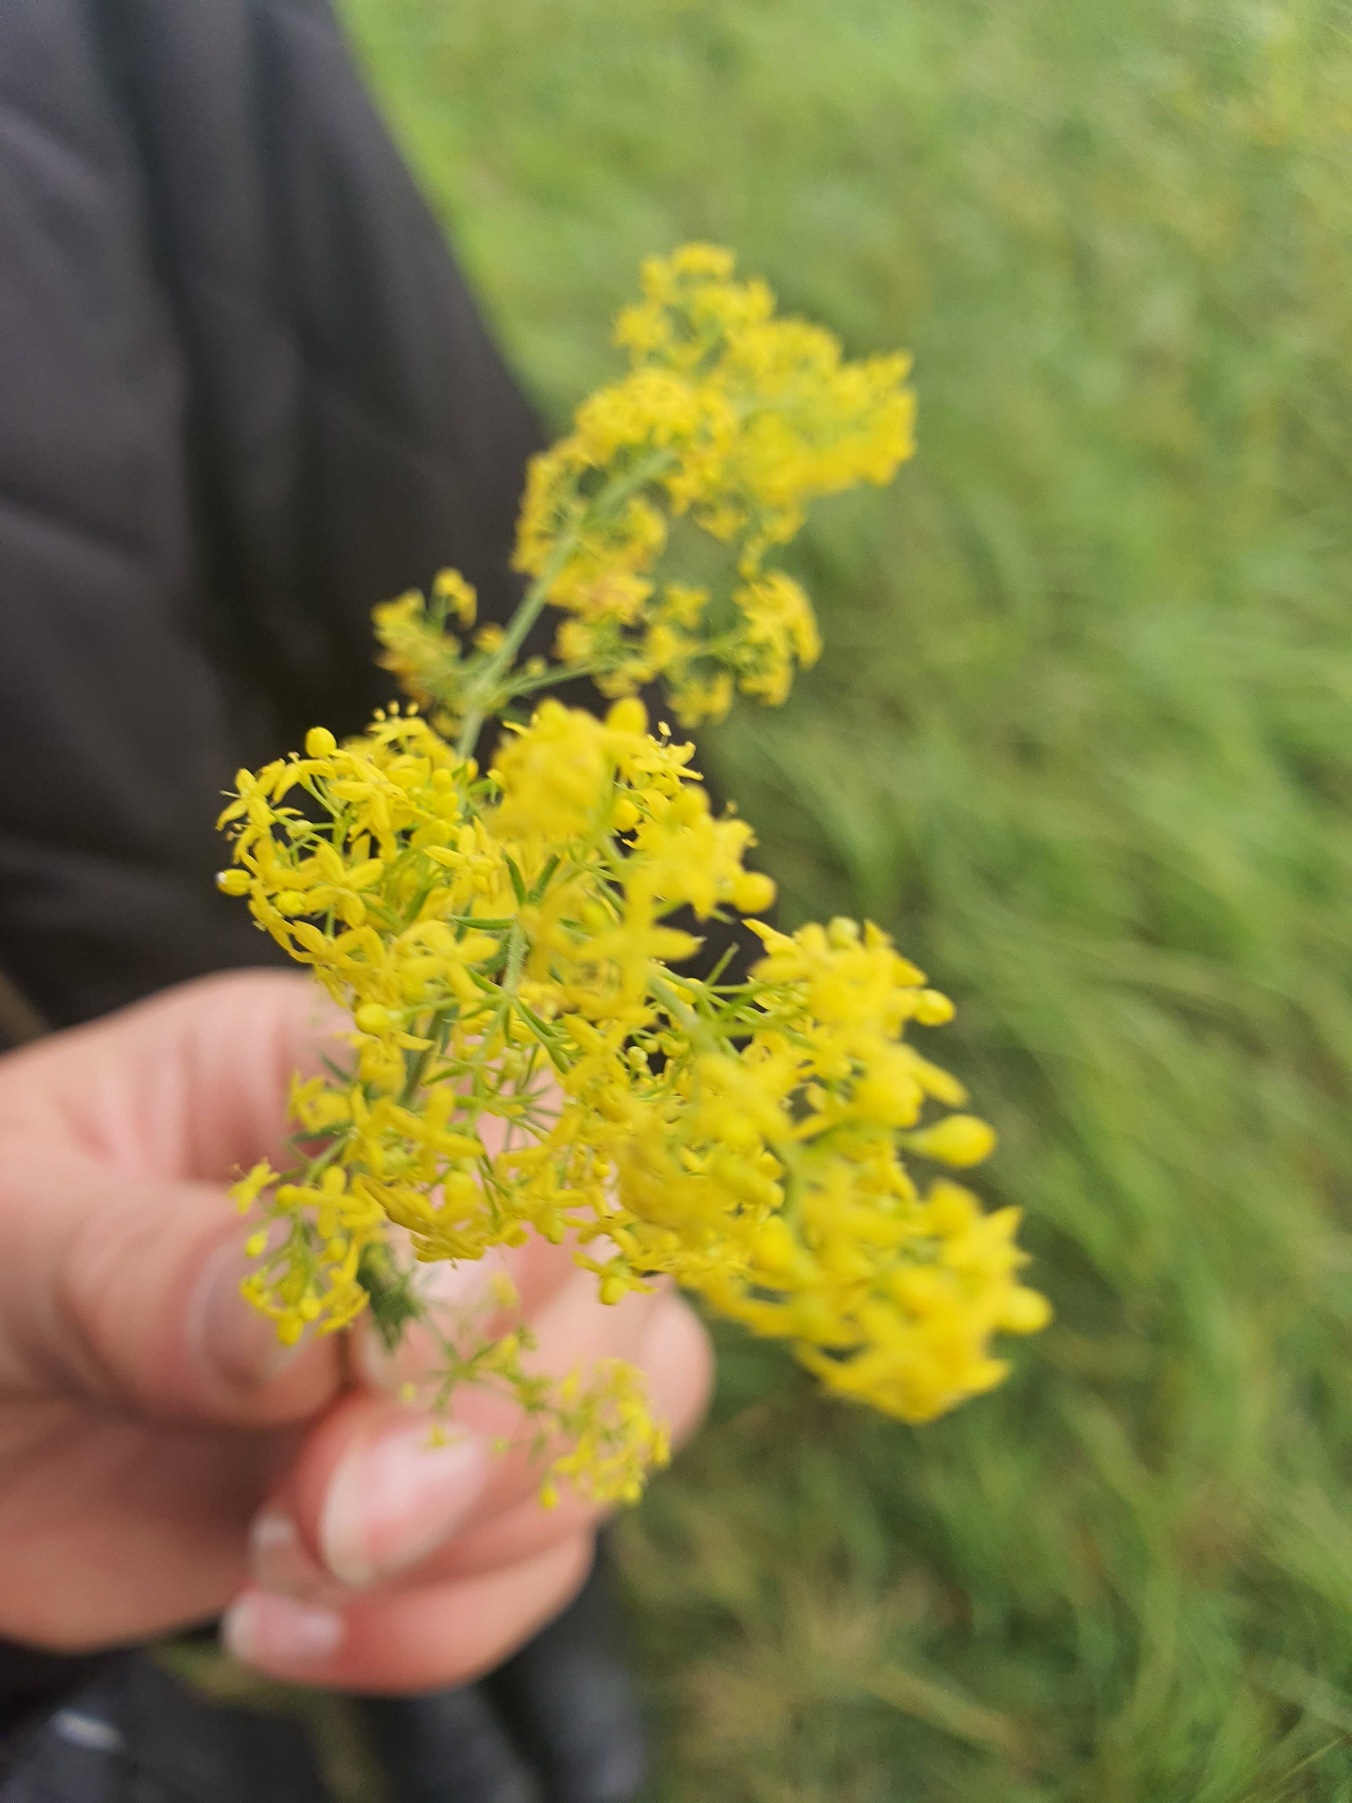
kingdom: Plantae
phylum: Tracheophyta
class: Magnoliopsida
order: Gentianales
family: Rubiaceae
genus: Galium
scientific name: Galium verum
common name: Gul snerre
